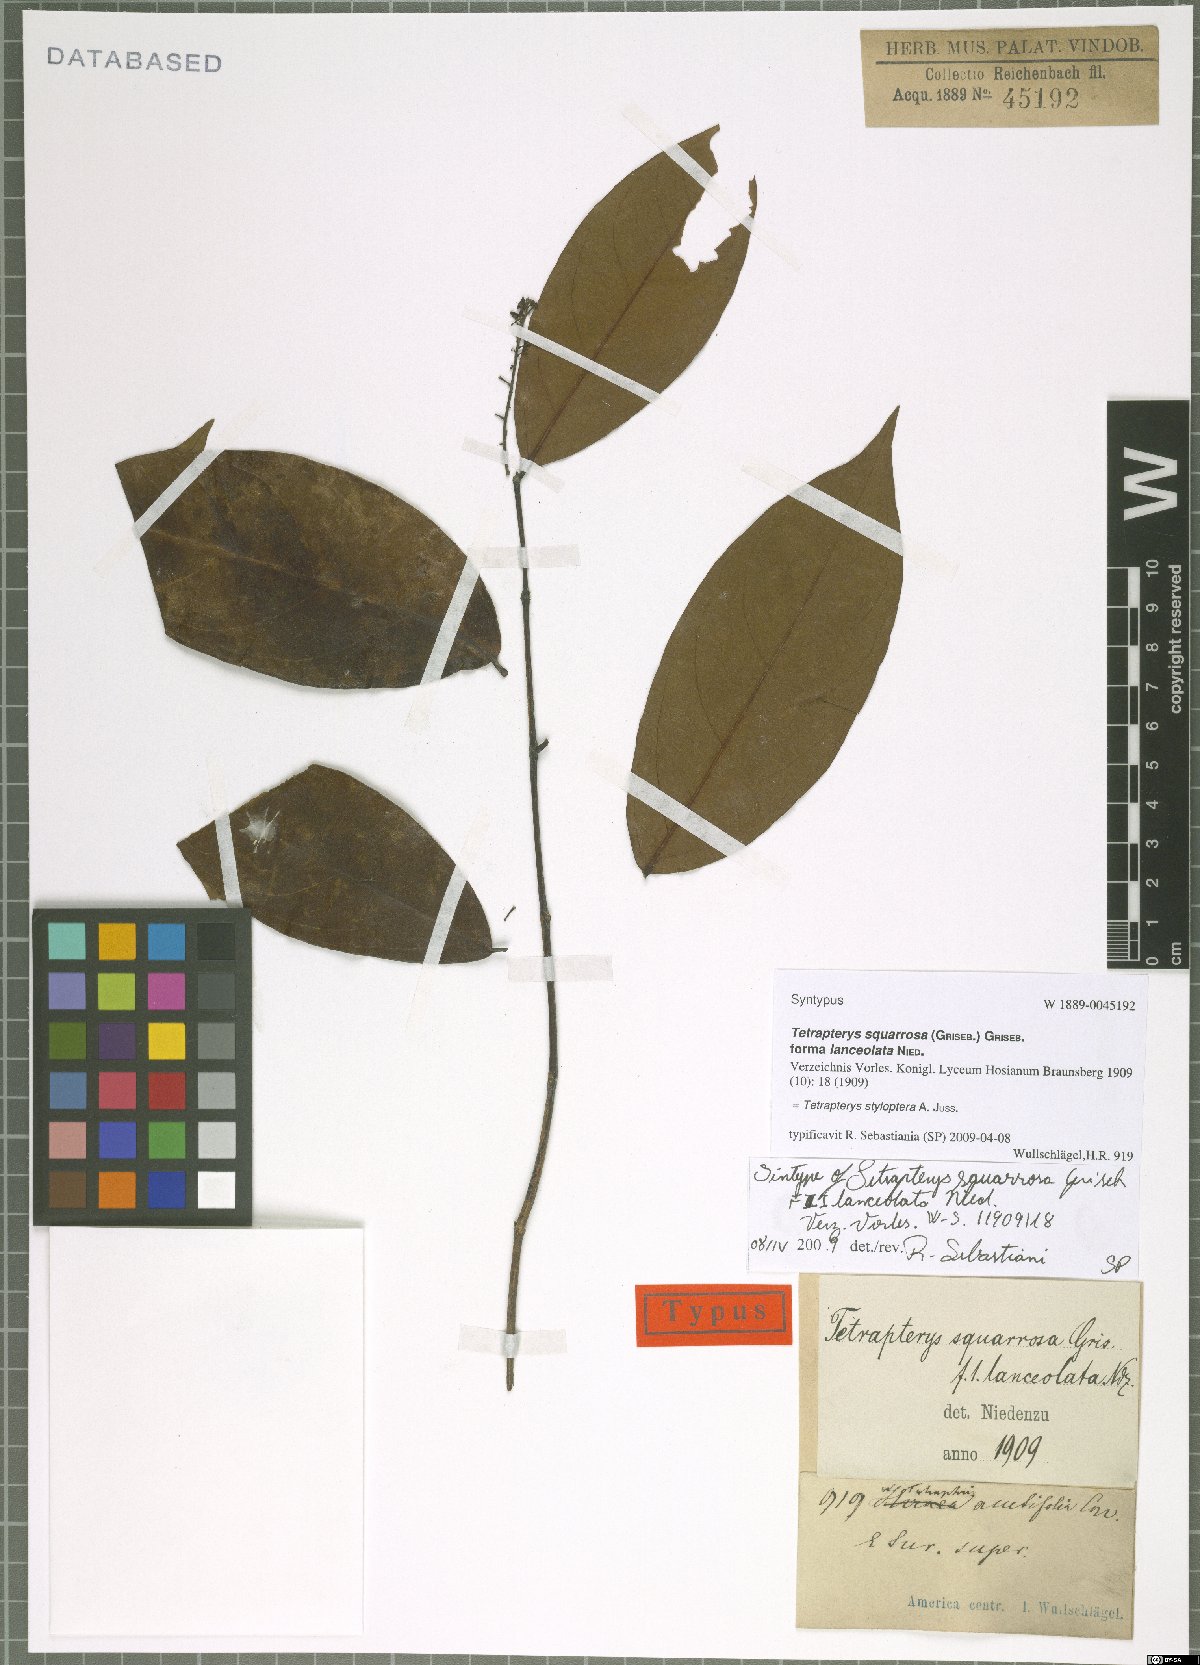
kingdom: Plantae
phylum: Tracheophyta
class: Magnoliopsida
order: Malpighiales
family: Malpighiaceae
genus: Glicophyllum
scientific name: Glicophyllum stylopterum
